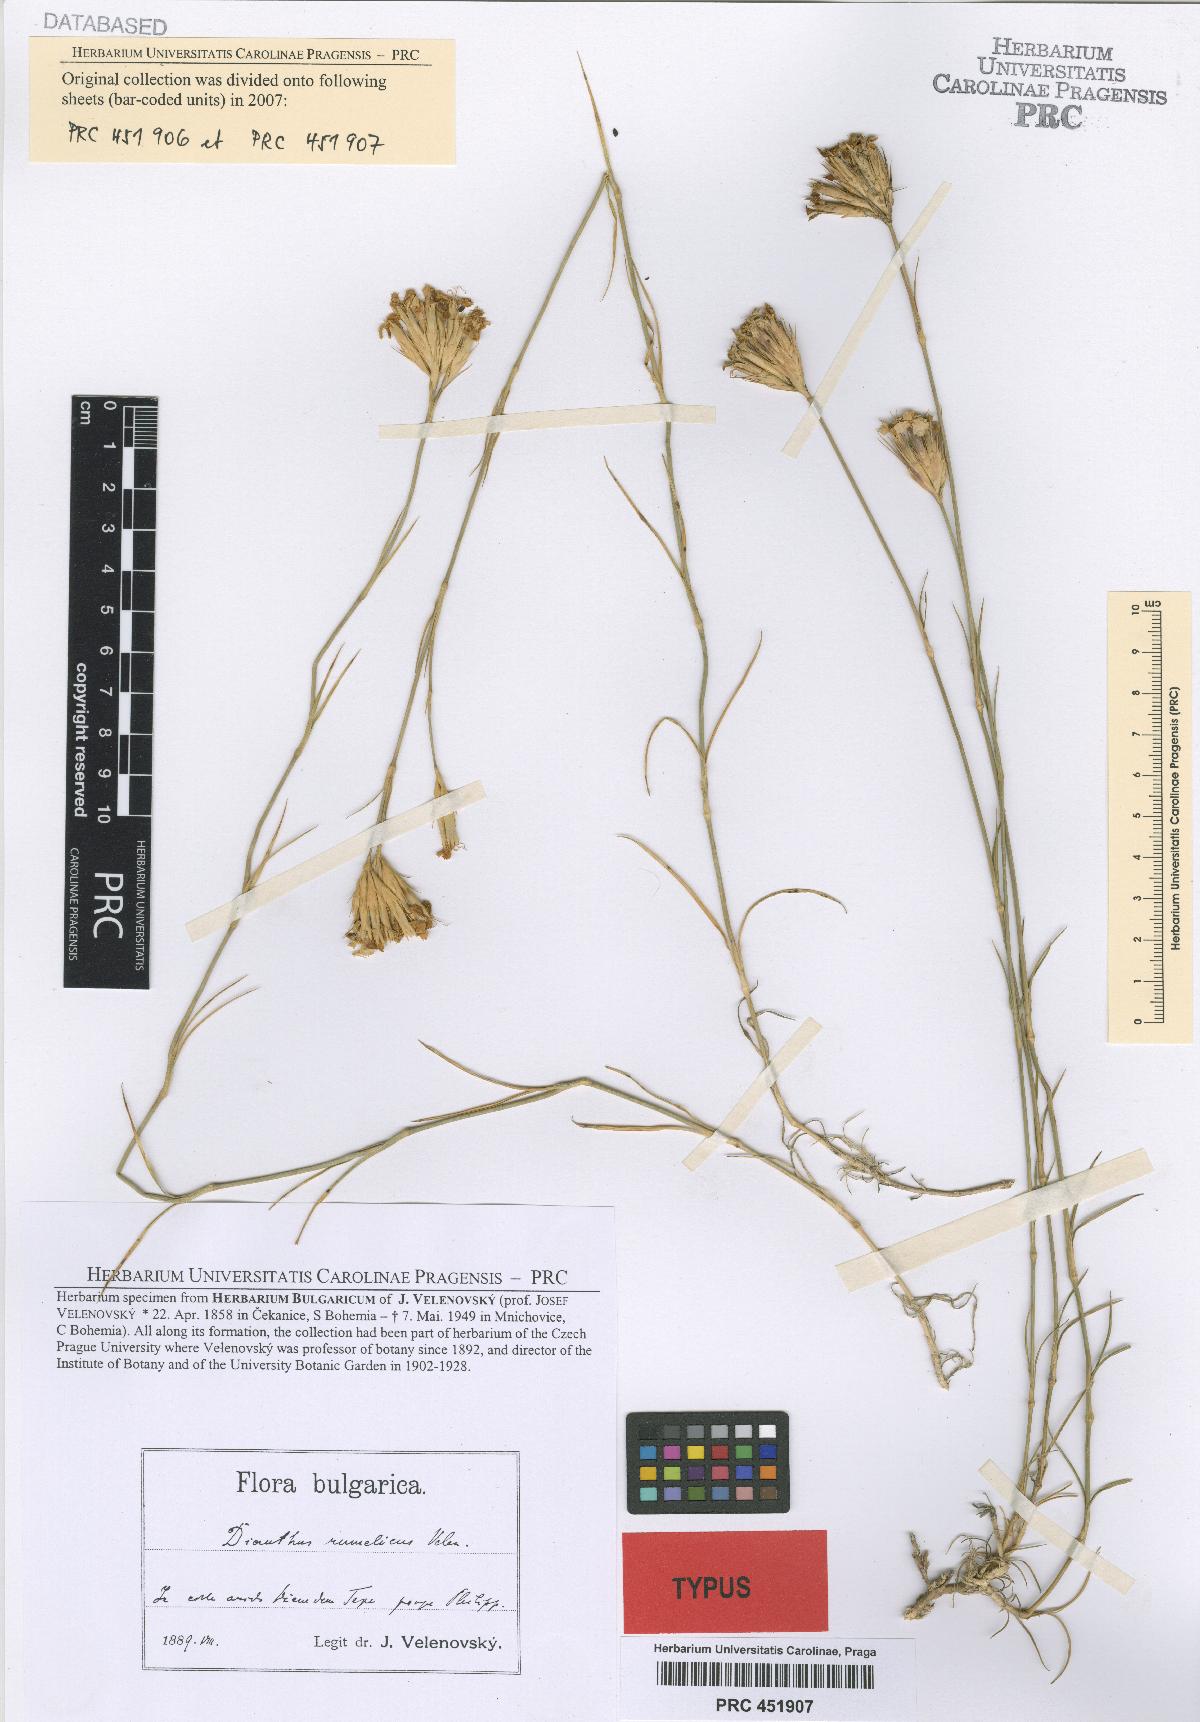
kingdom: Plantae
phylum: Tracheophyta
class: Magnoliopsida
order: Caryophyllales
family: Caryophyllaceae
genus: Dianthus
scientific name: Dianthus pinifolius
